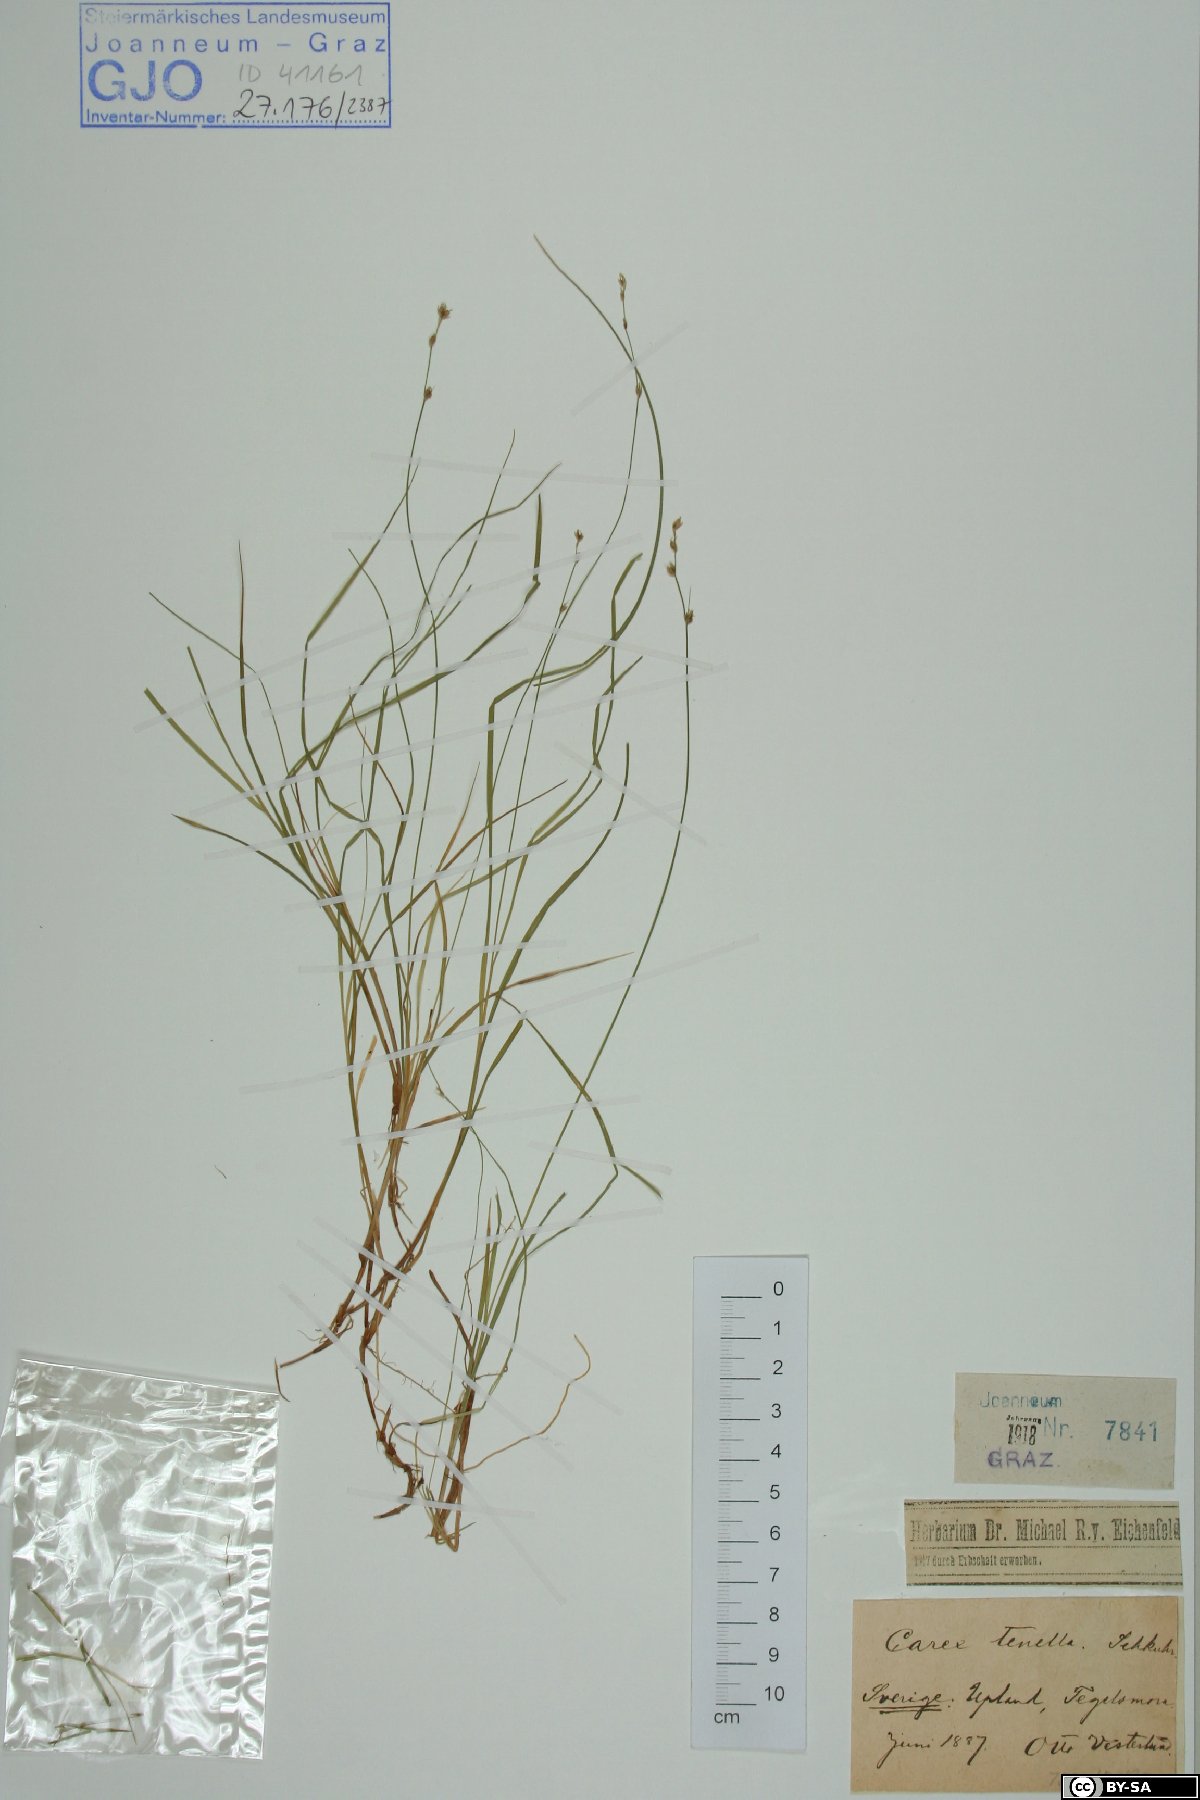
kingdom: Plantae
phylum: Tracheophyta
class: Liliopsida
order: Poales
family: Cyperaceae
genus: Carex
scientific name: Carex disperma
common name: Short-leaved sedge
